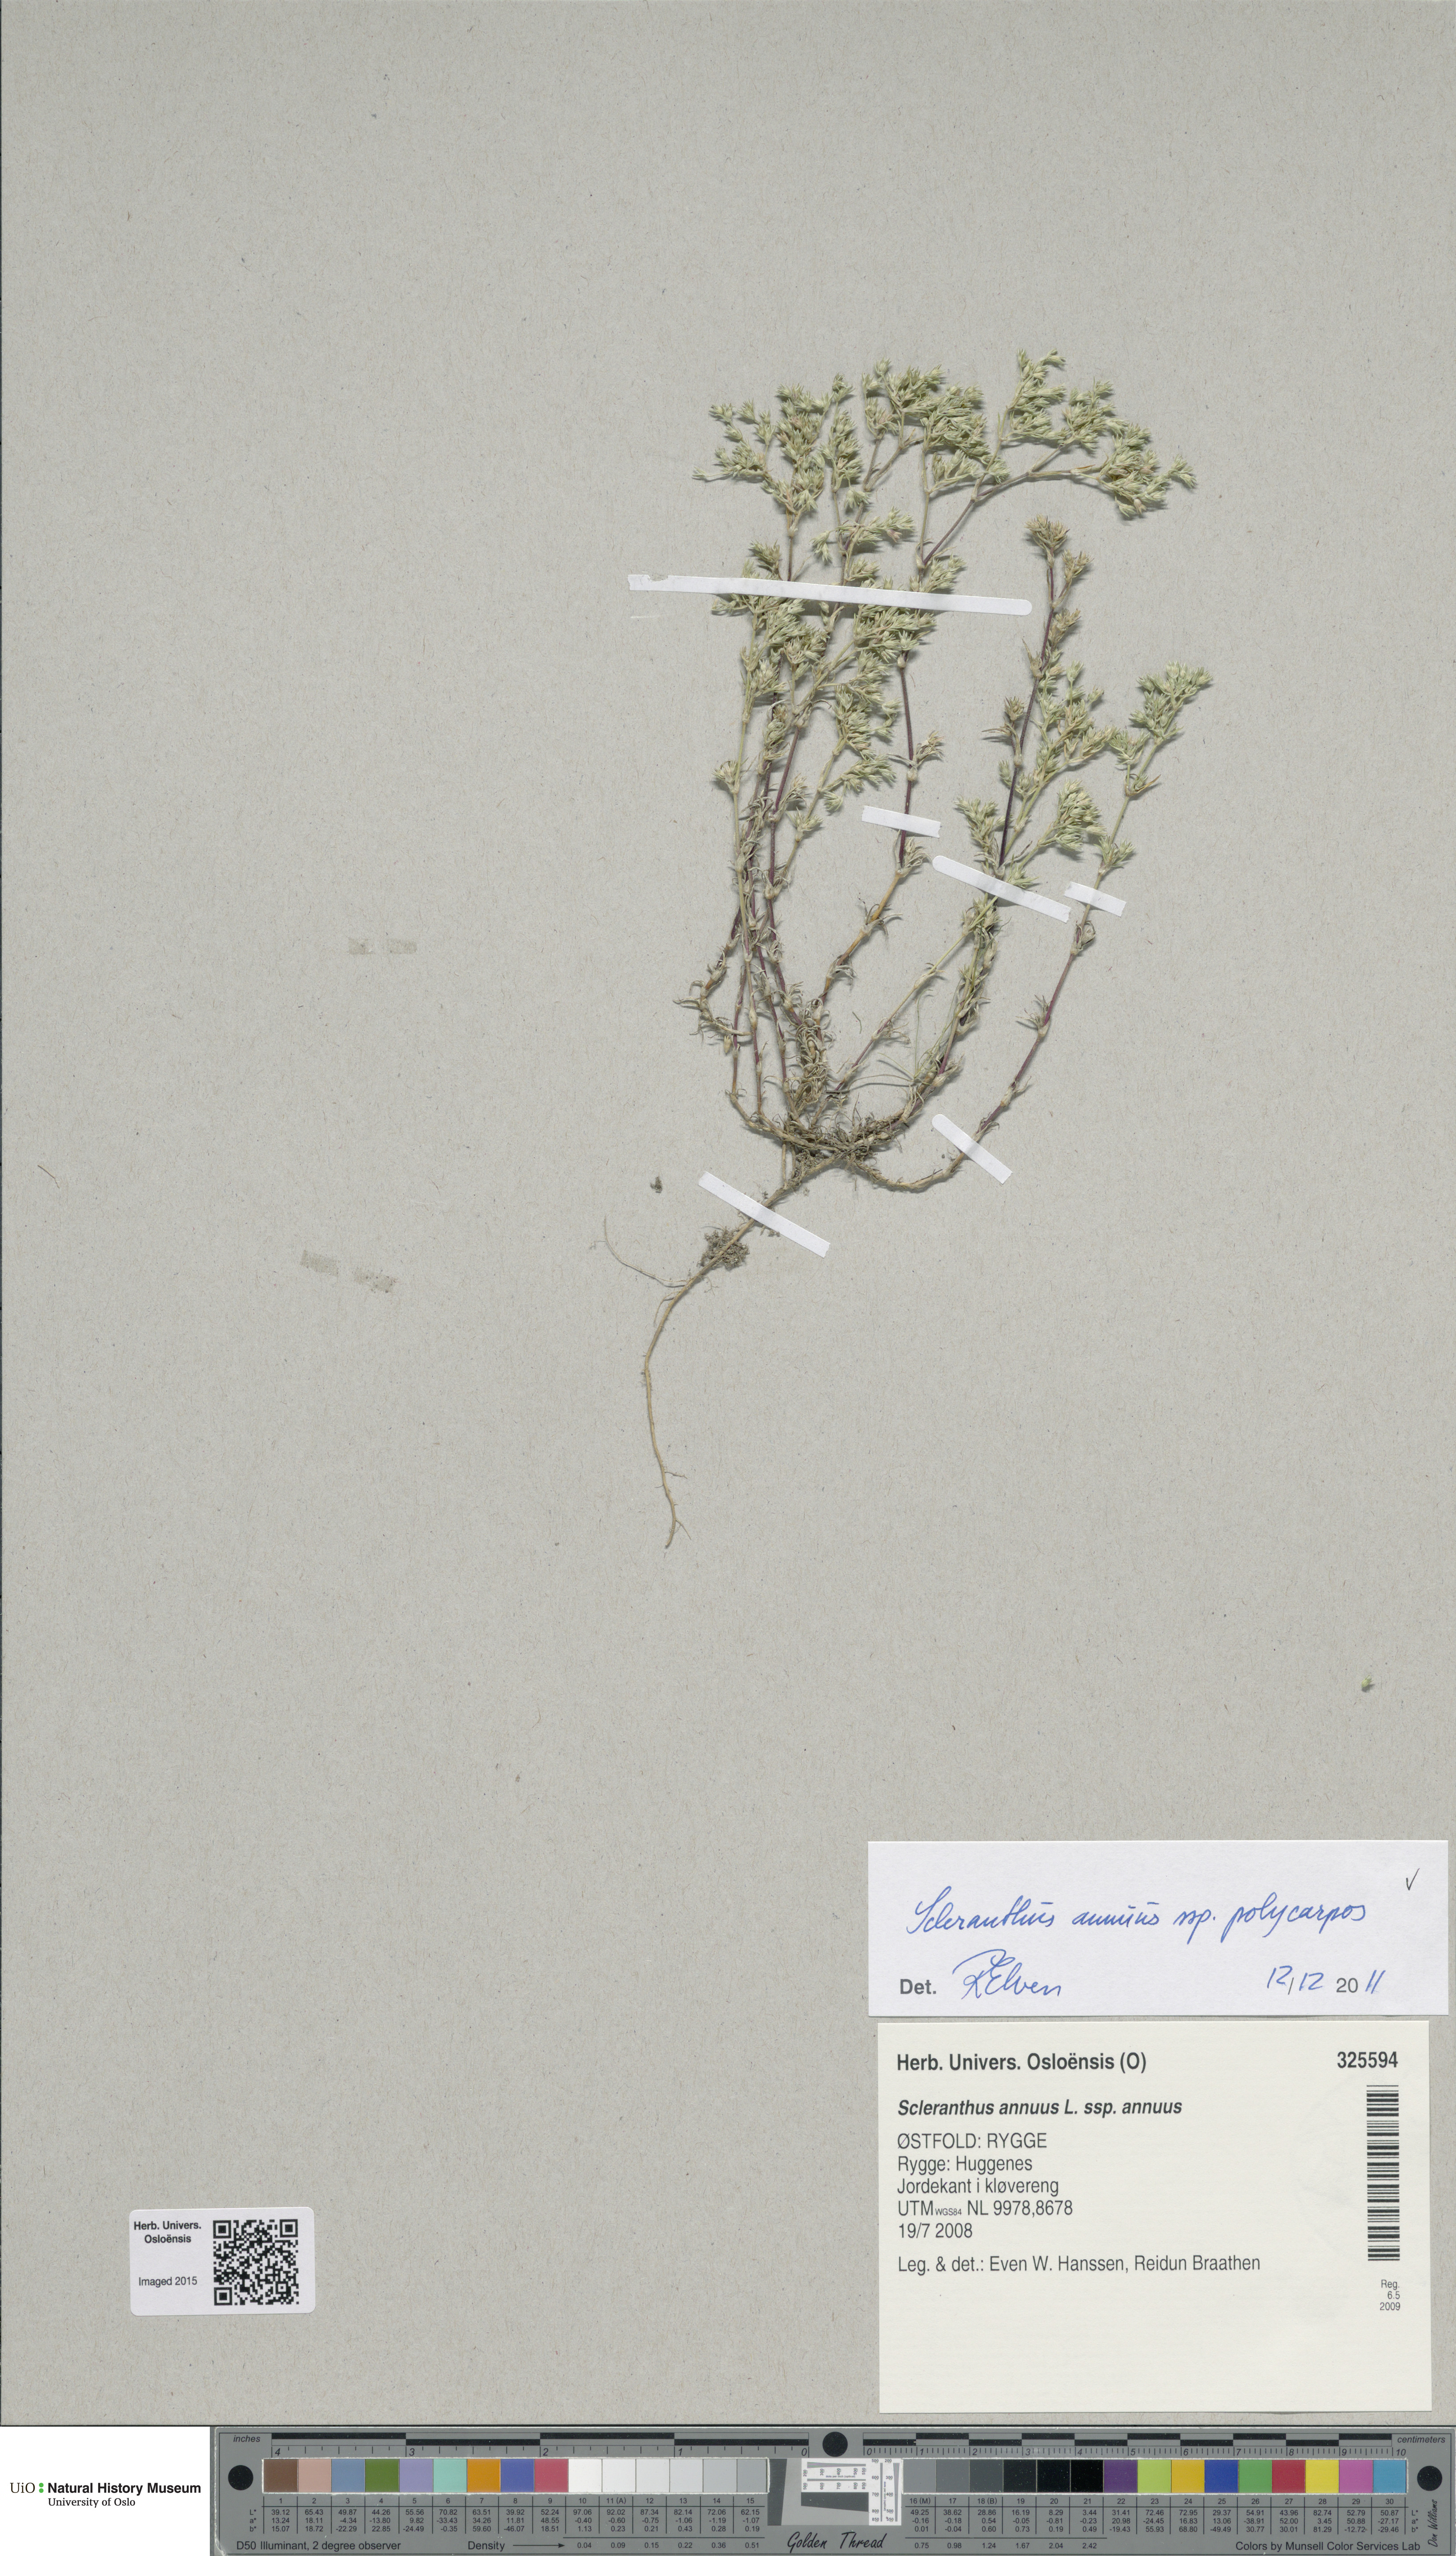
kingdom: Plantae
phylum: Tracheophyta
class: Magnoliopsida
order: Caryophyllales
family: Caryophyllaceae
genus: Scleranthus
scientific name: Scleranthus annuus
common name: Annual knawel
